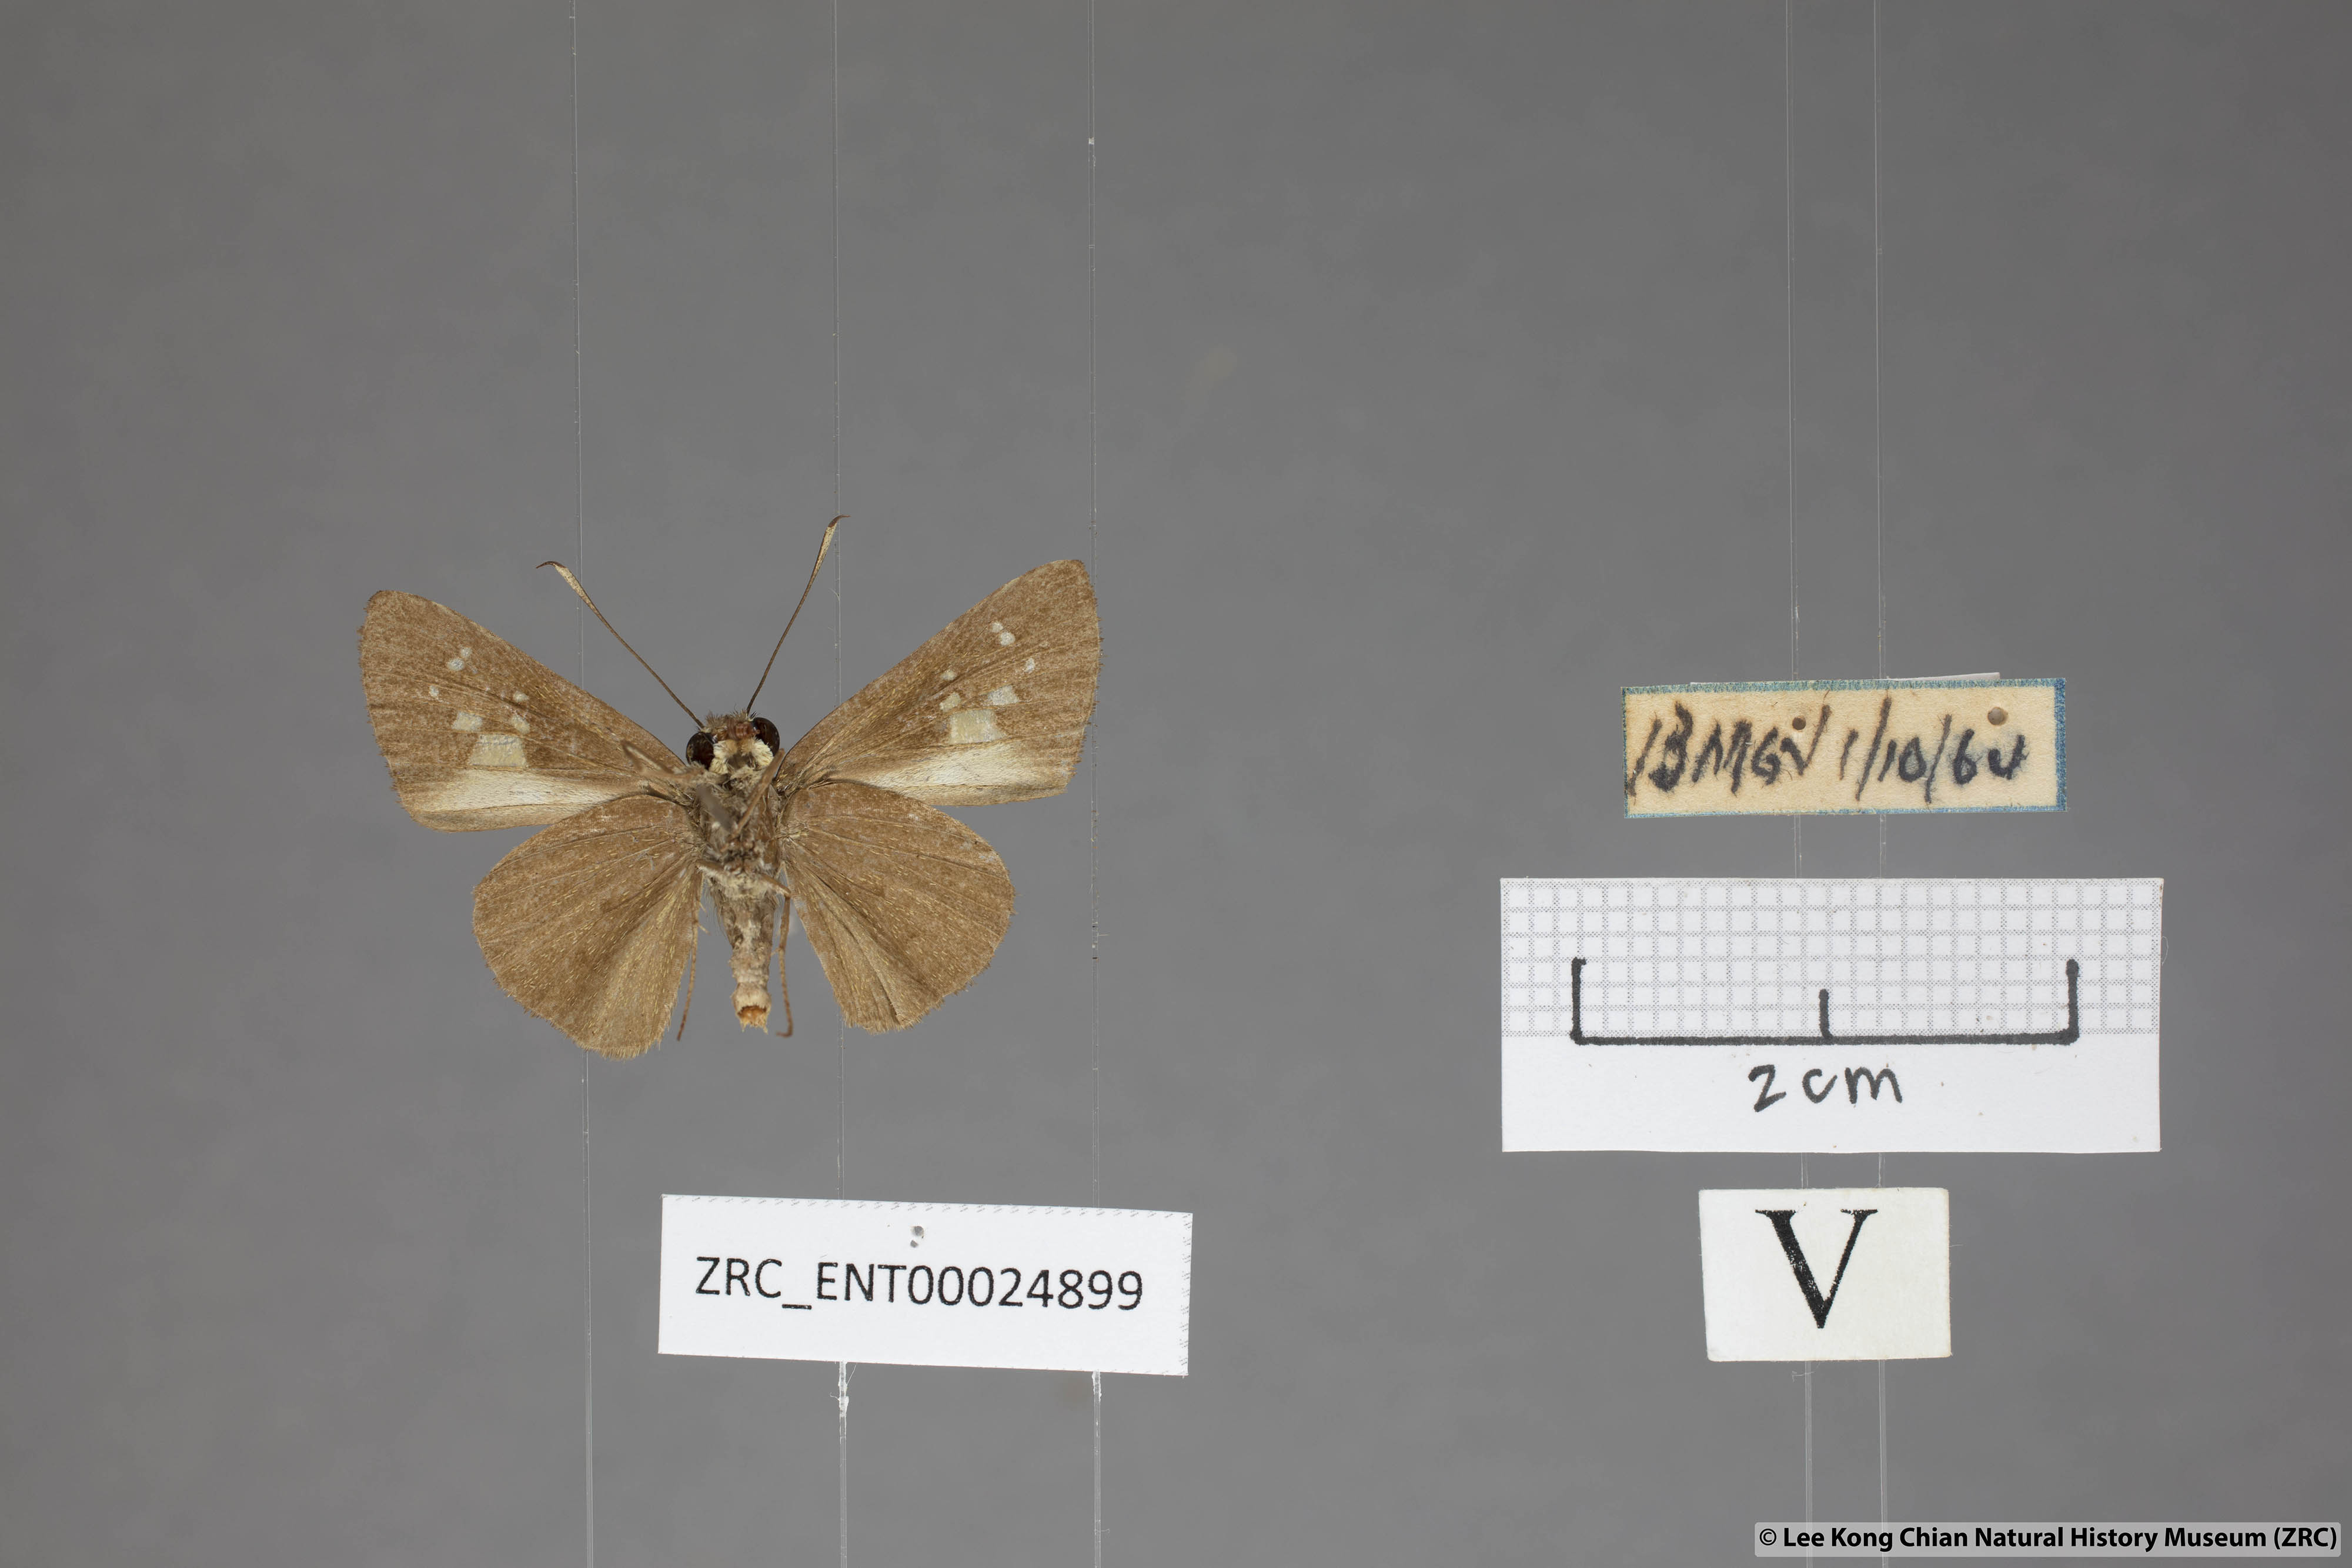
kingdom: Animalia
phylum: Arthropoda
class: Insecta
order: Lepidoptera
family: Hesperiidae
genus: Isma
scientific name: Isma
